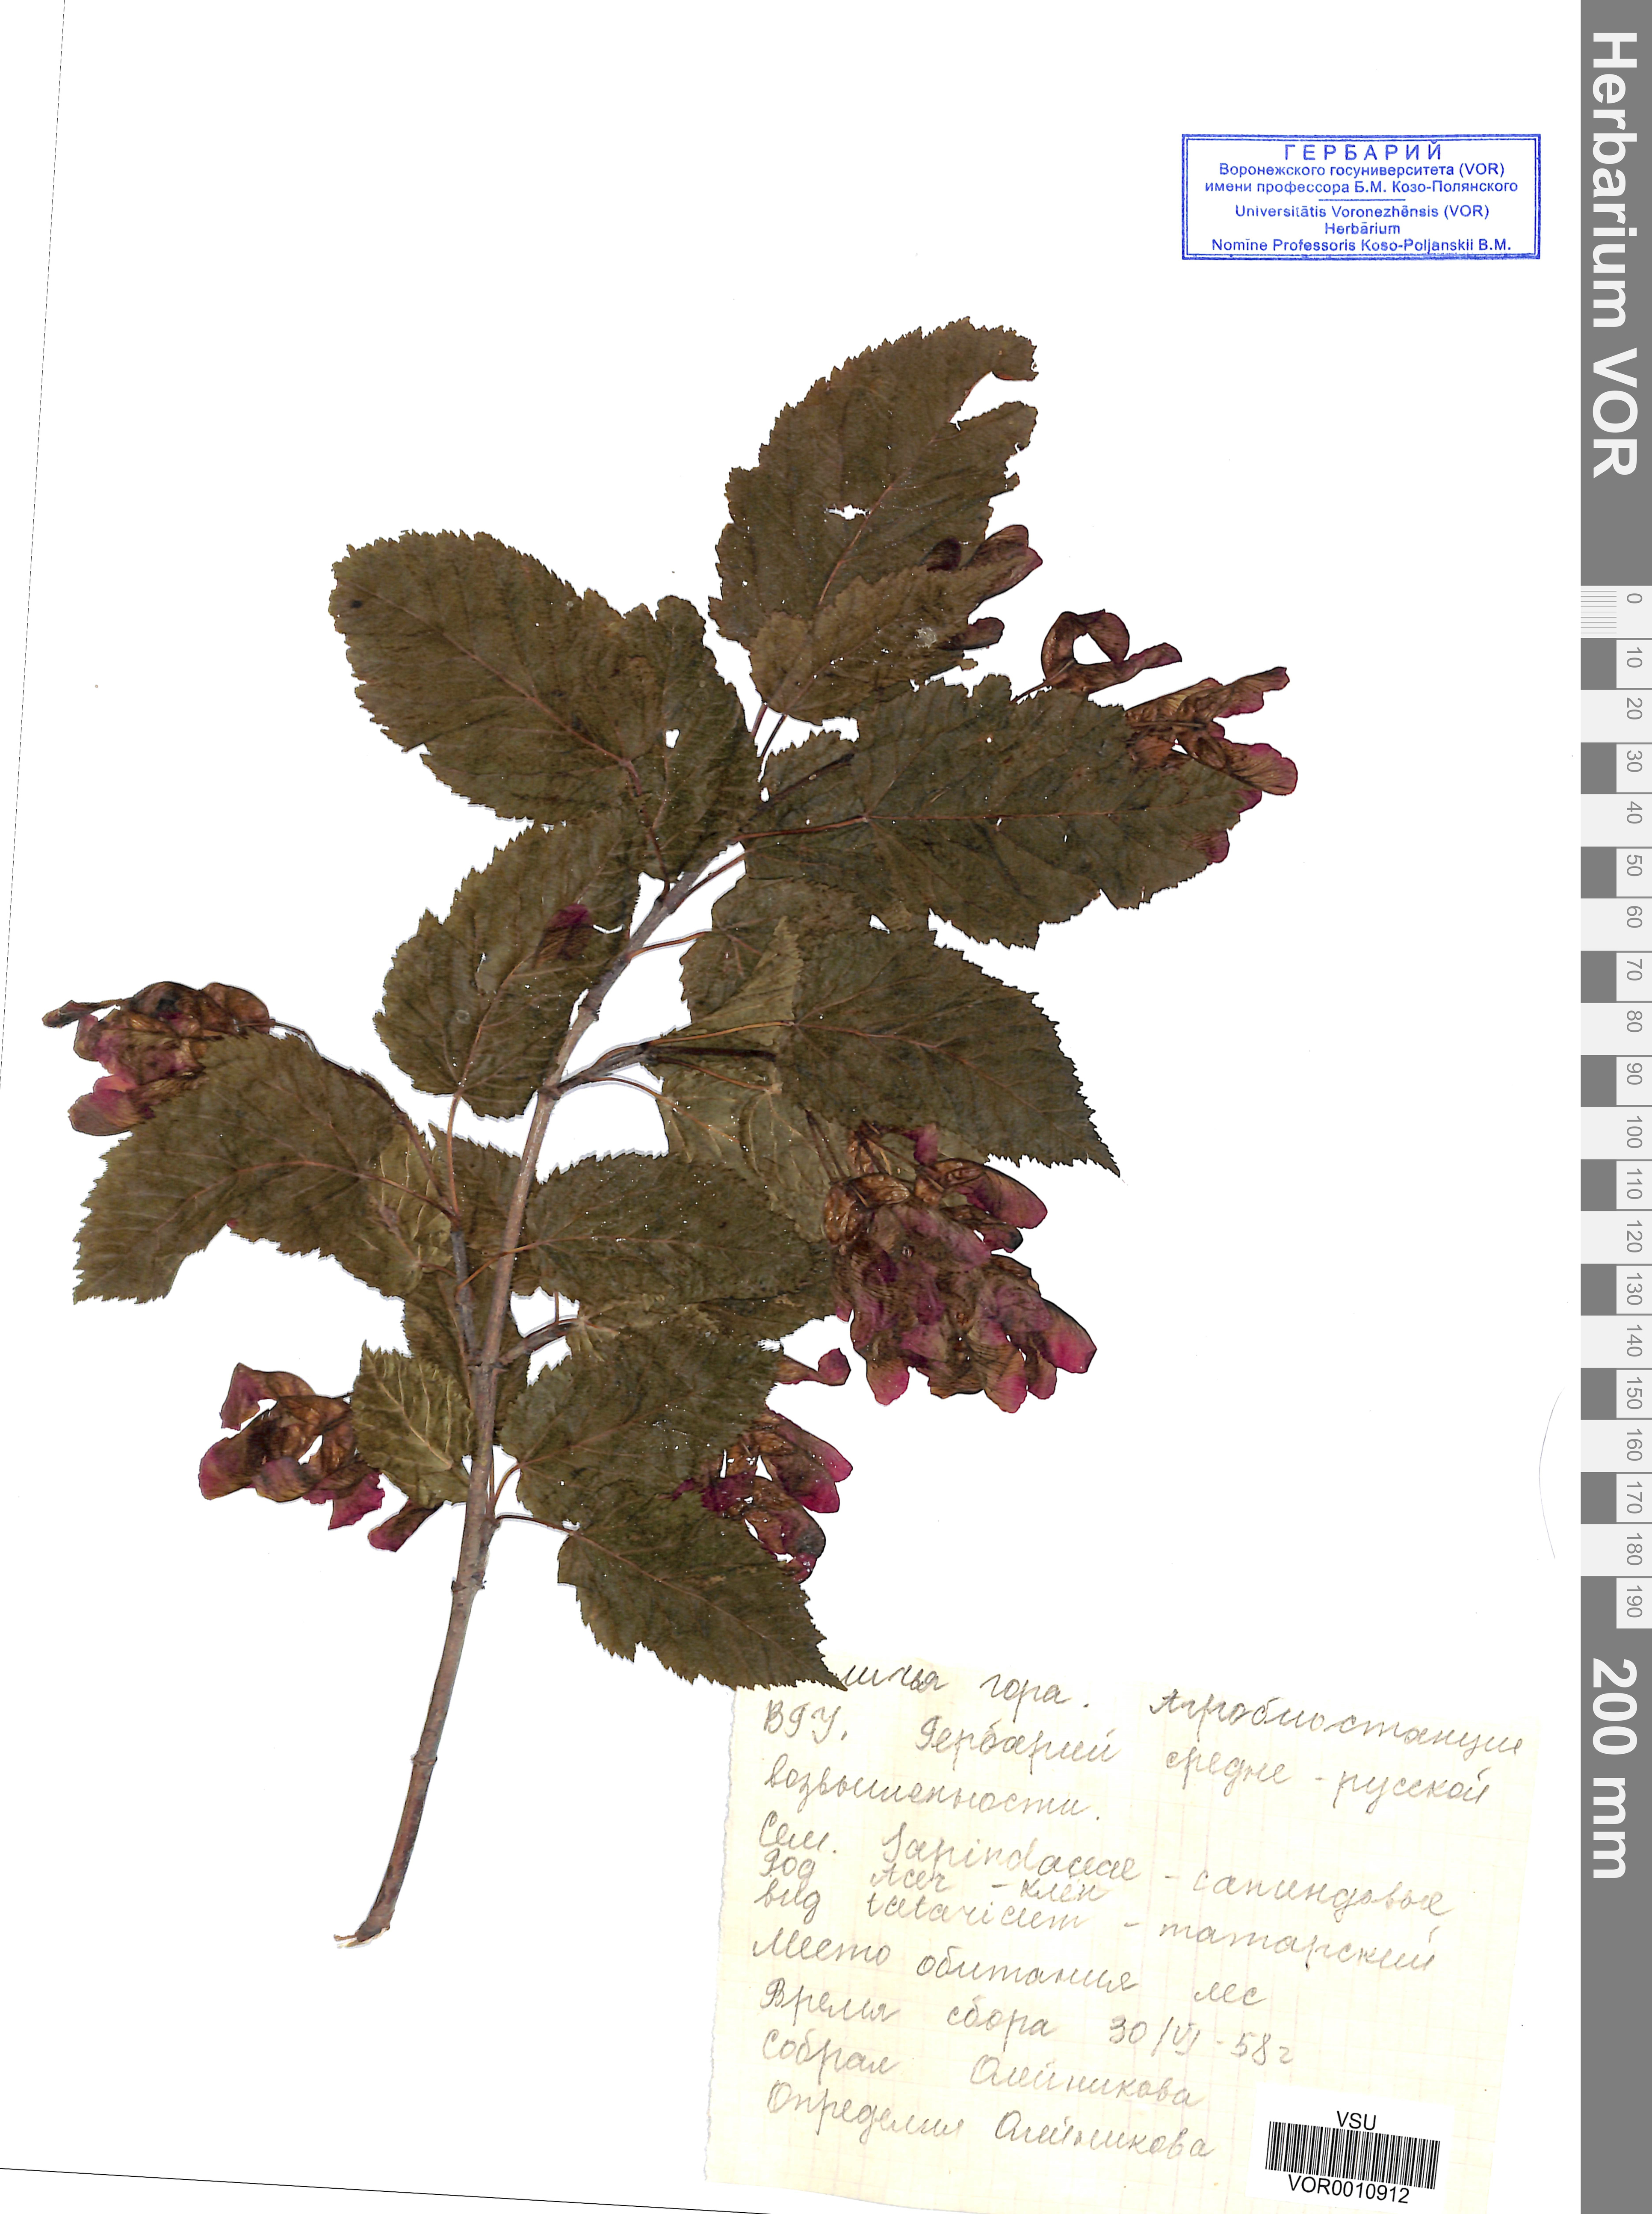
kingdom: Plantae
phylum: Tracheophyta
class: Magnoliopsida
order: Sapindales
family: Sapindaceae
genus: Acer
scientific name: Acer tataricum
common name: Tartar maple
